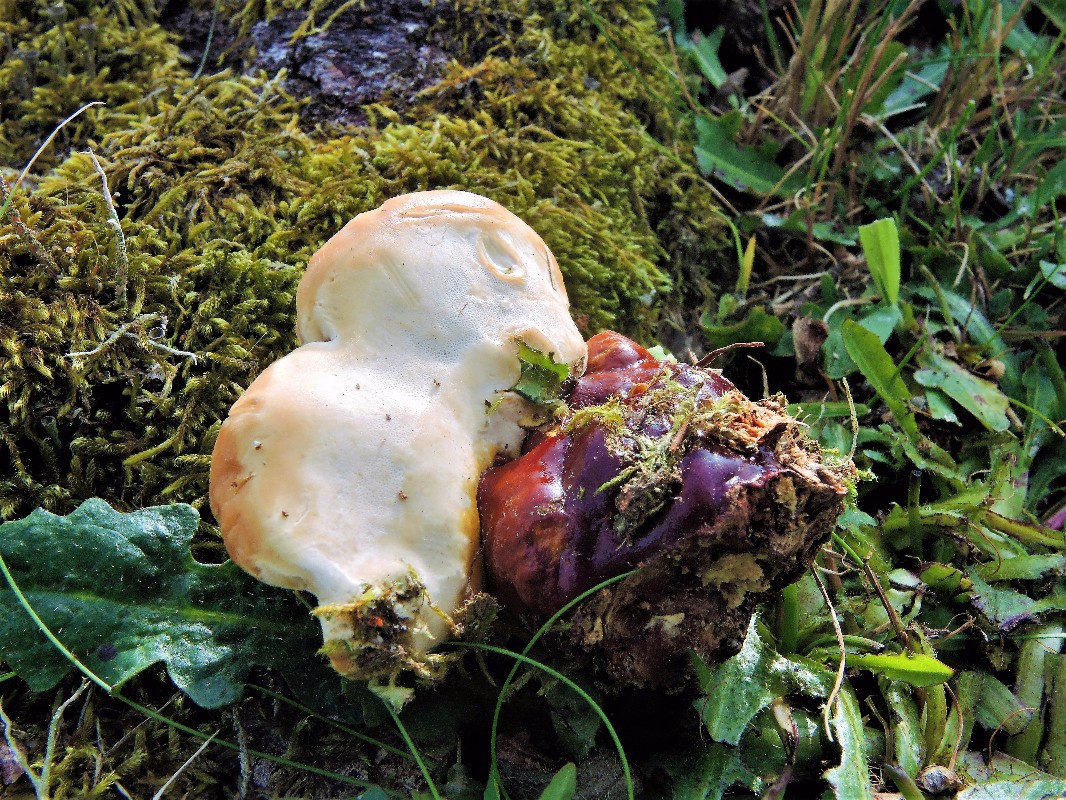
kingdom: Fungi
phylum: Basidiomycota
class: Agaricomycetes
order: Polyporales
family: Polyporaceae
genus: Ganoderma
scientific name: Ganoderma lucidum
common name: skinnende lakporesvamp
